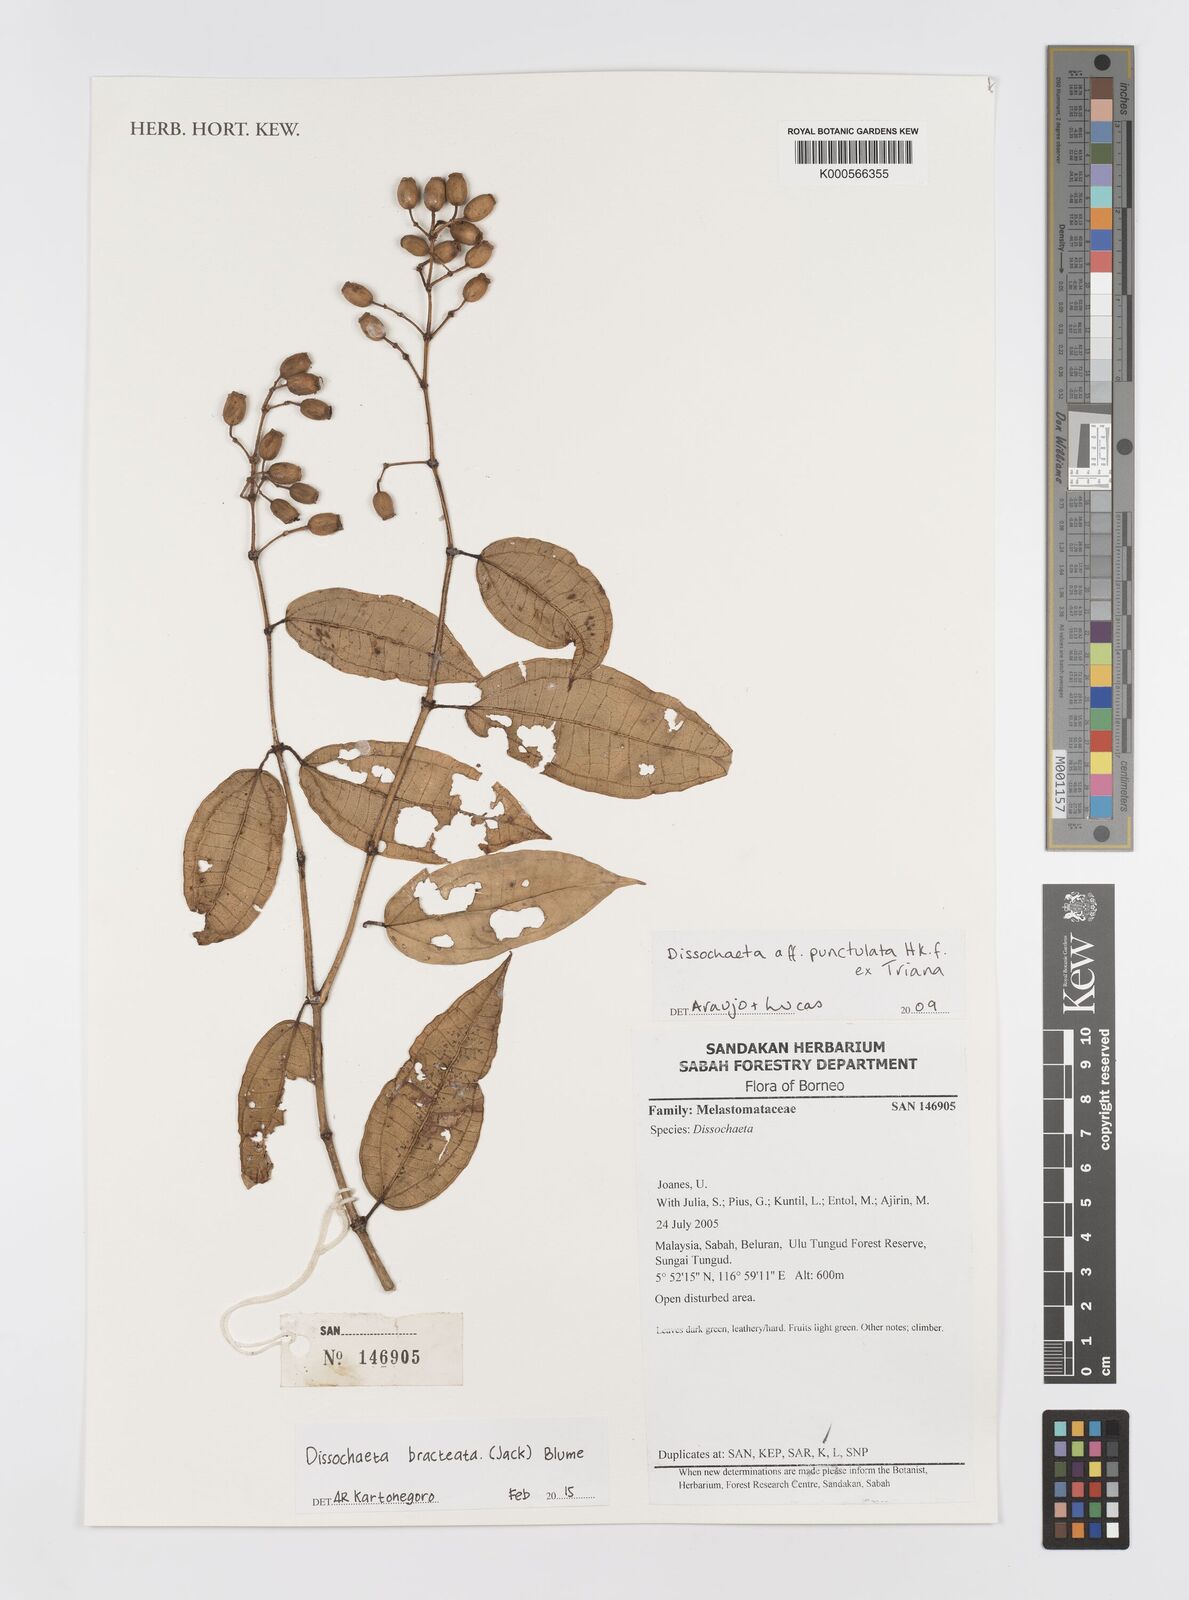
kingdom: Plantae
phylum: Tracheophyta
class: Magnoliopsida
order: Myrtales
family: Melastomataceae
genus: Dissochaeta
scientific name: Dissochaeta bracteata
